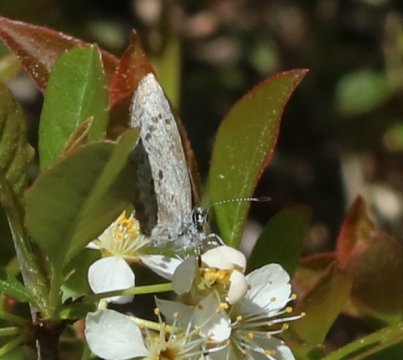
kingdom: Animalia
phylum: Arthropoda
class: Insecta
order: Lepidoptera
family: Lycaenidae
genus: Celastrina
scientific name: Celastrina lucia
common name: Northern Spring Azure
